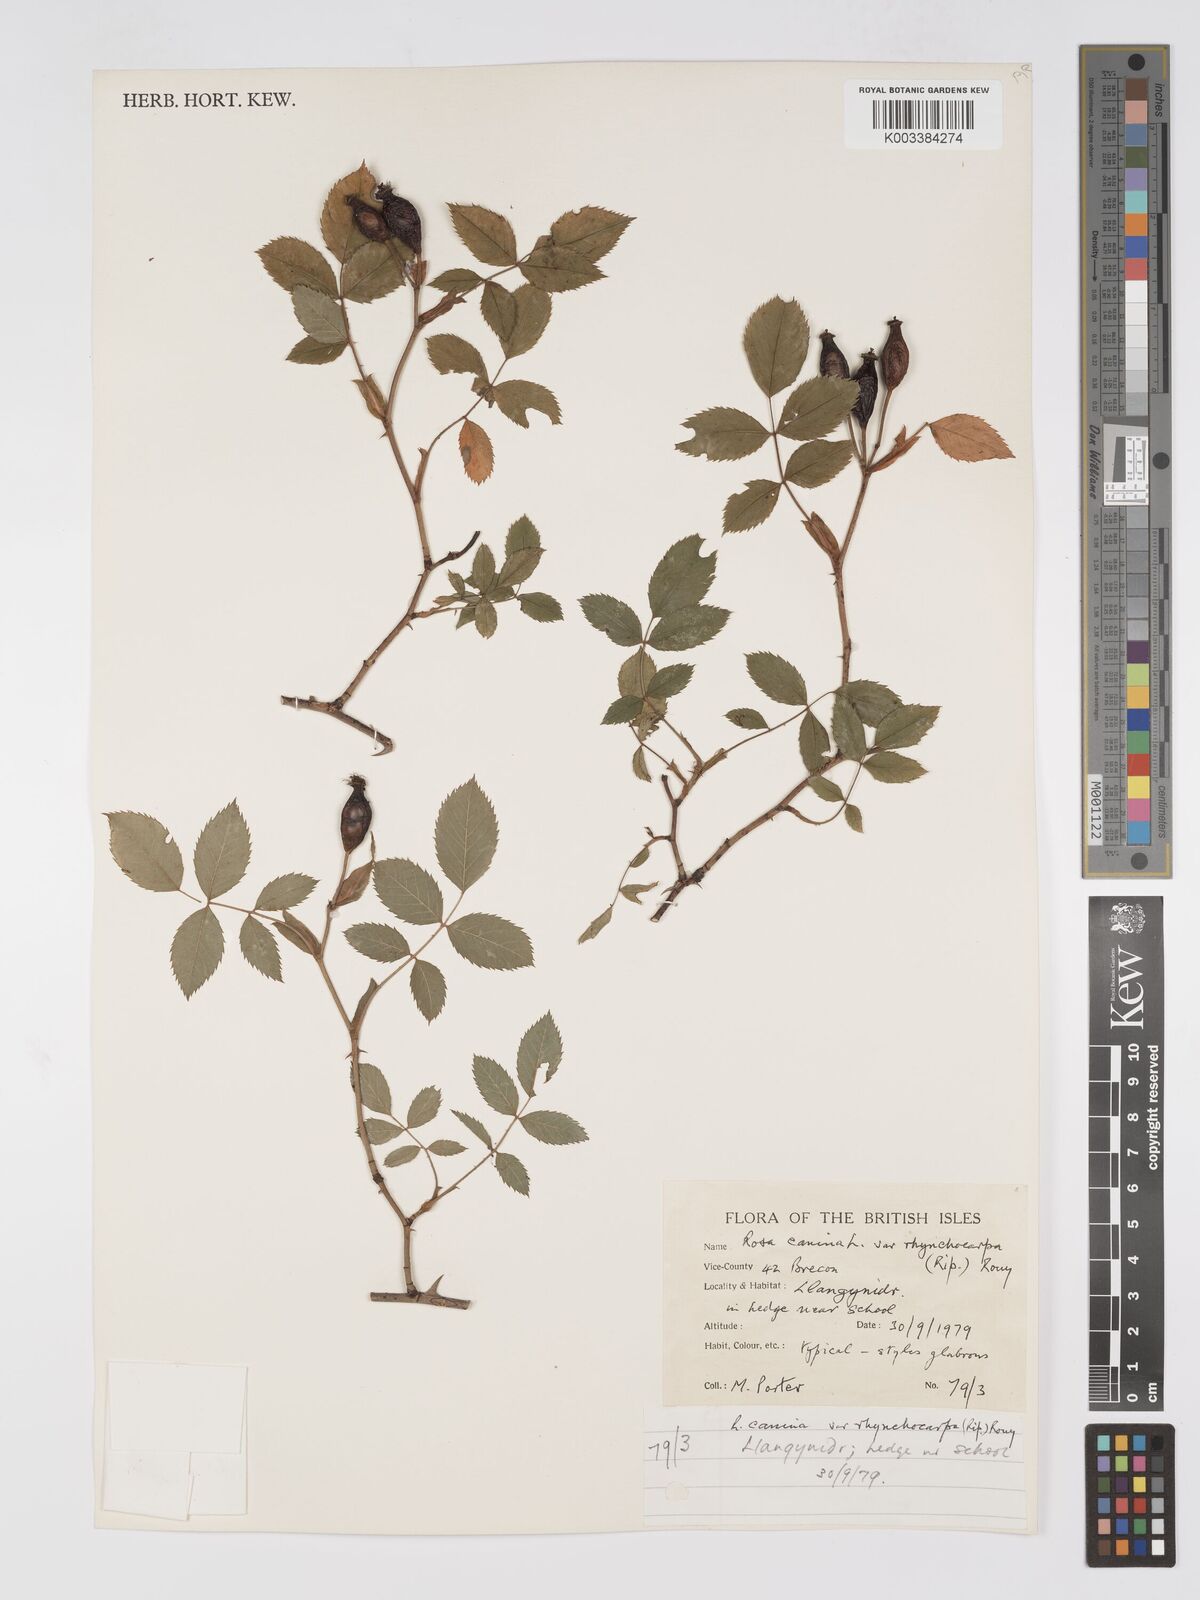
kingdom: Plantae
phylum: Tracheophyta
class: Magnoliopsida
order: Rosales
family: Rosaceae
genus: Rosa
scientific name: Rosa canina
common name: Dog rose
